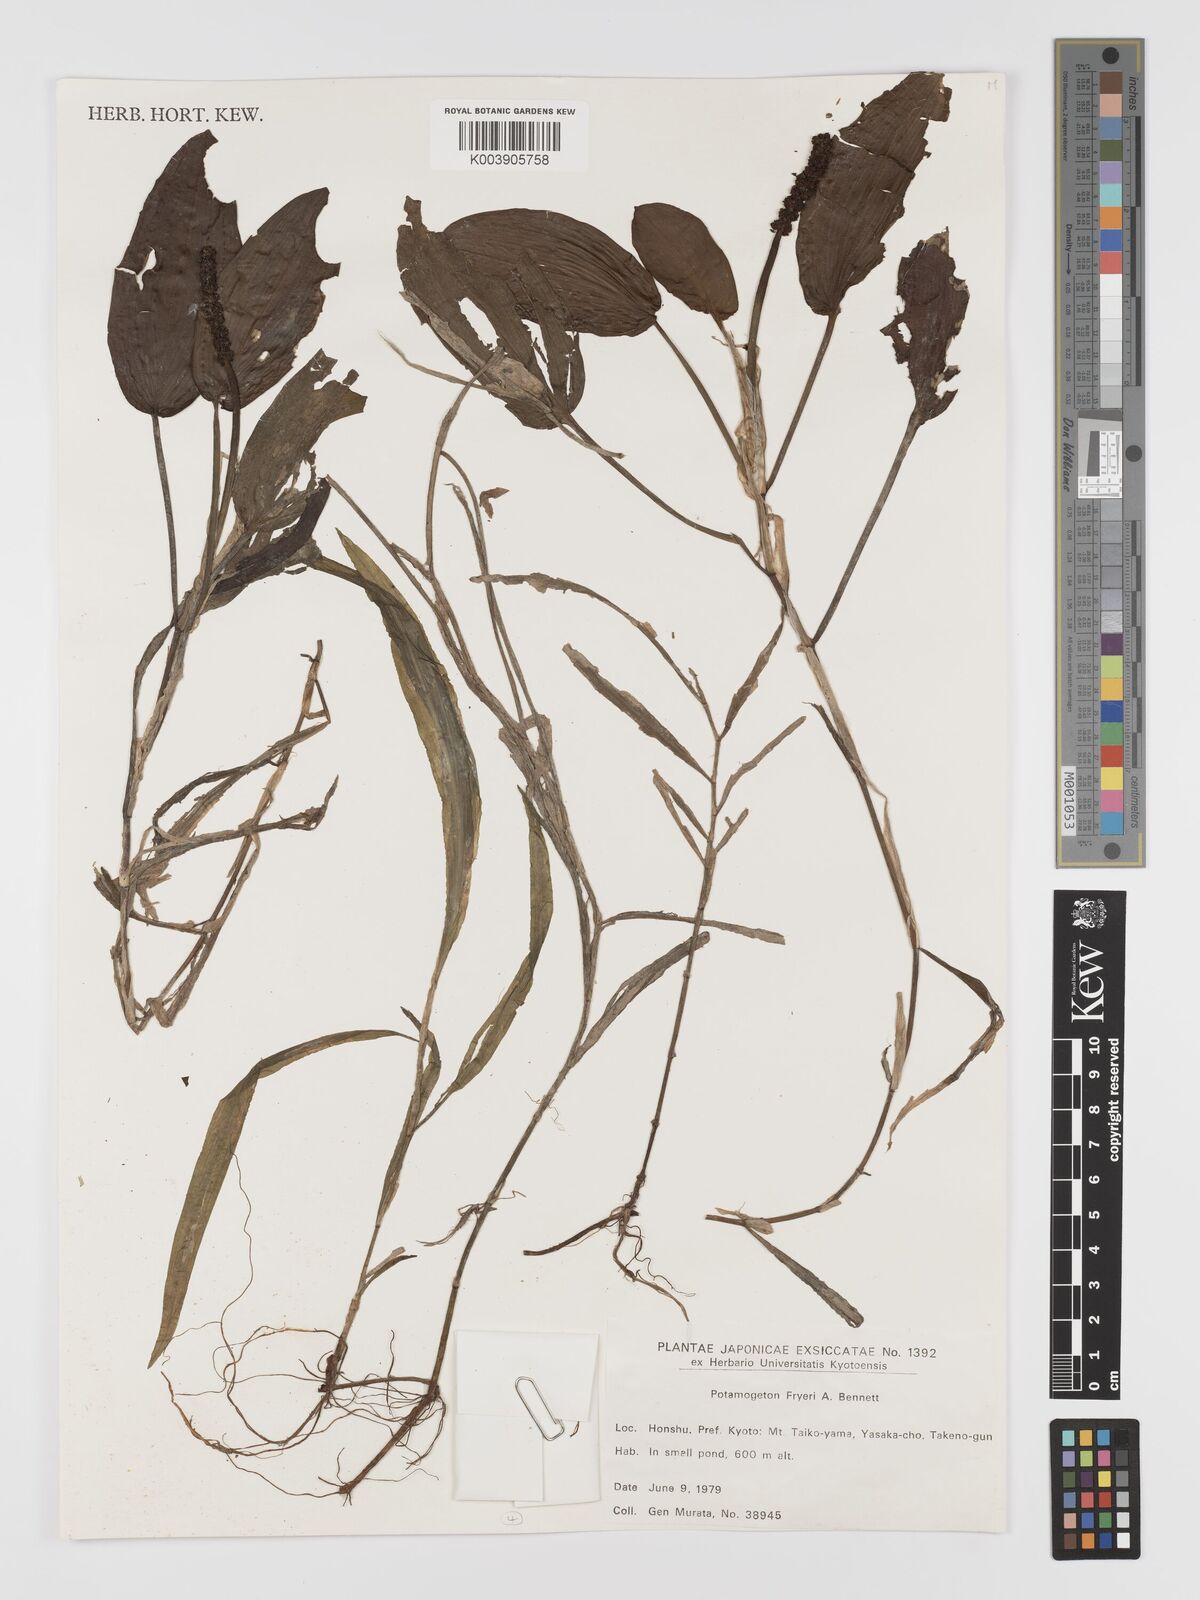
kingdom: Plantae
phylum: Tracheophyta
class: Liliopsida
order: Alismatales
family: Potamogetonaceae
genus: Potamogeton
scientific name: Potamogeton fryeri
